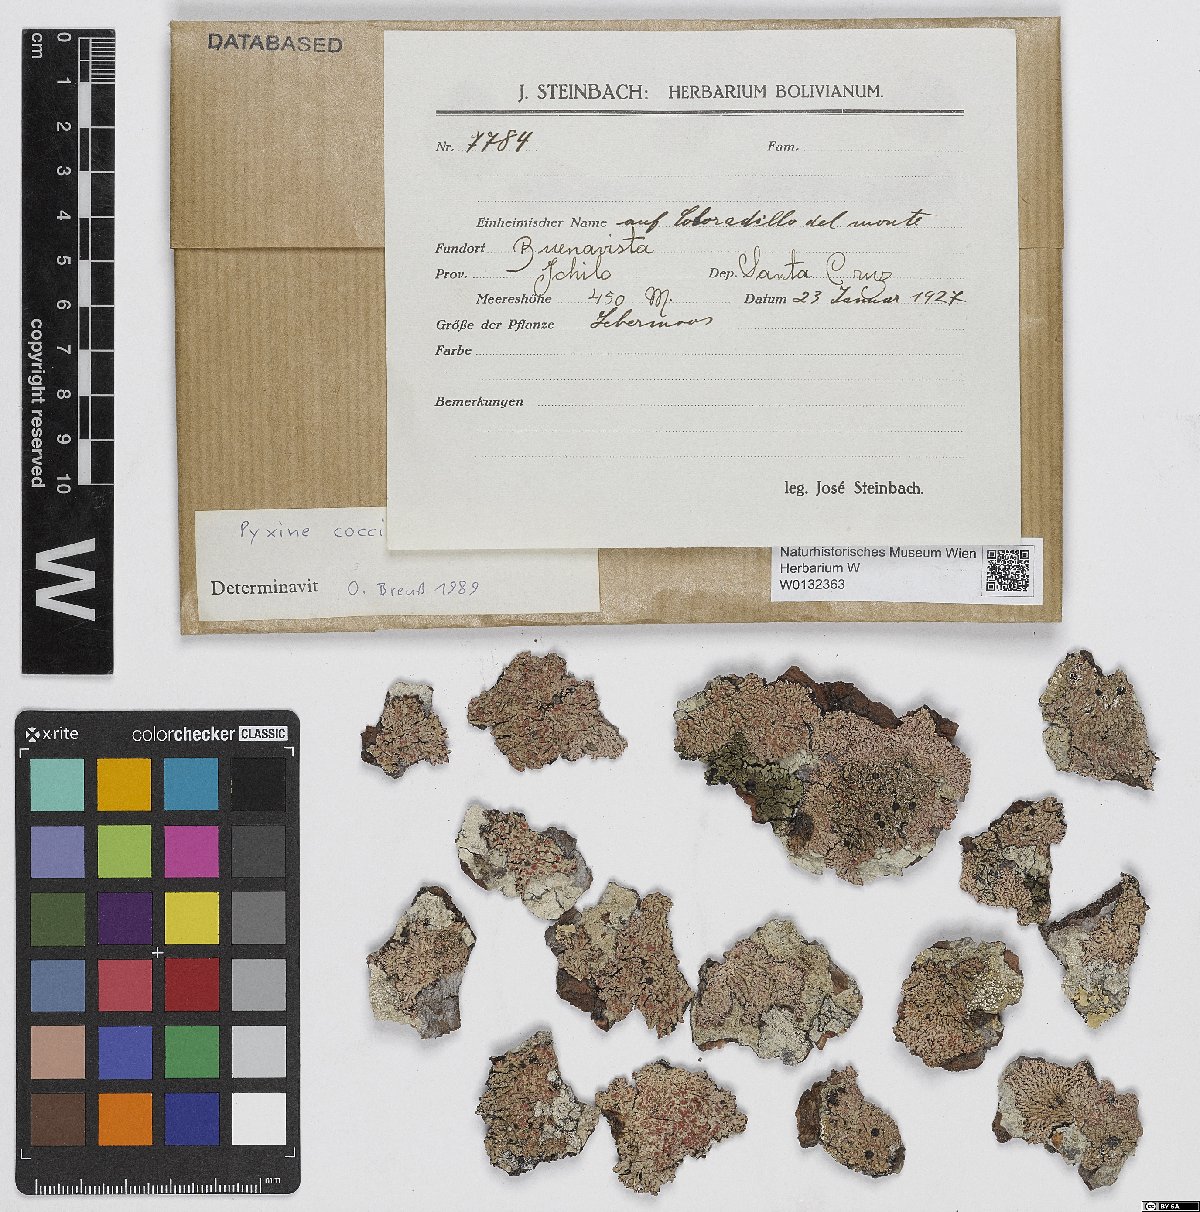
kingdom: Fungi
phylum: Ascomycota
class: Lecanoromycetes
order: Caliciales
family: Caliciaceae
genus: Pyxine
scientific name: Pyxine coccifera
